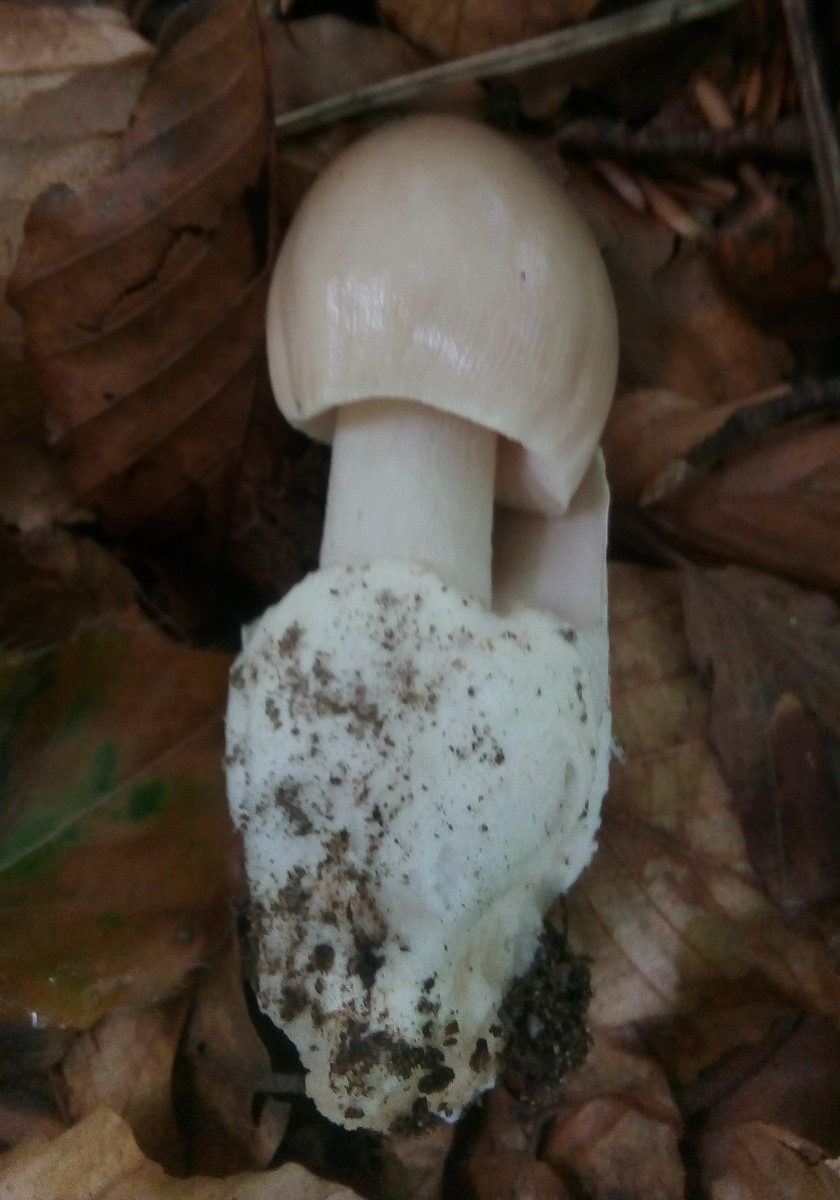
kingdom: Fungi
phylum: Basidiomycota
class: Agaricomycetes
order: Agaricales
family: Amanitaceae
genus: Amanita
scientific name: Amanita vaginata
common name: grå kam-fluesvamp
